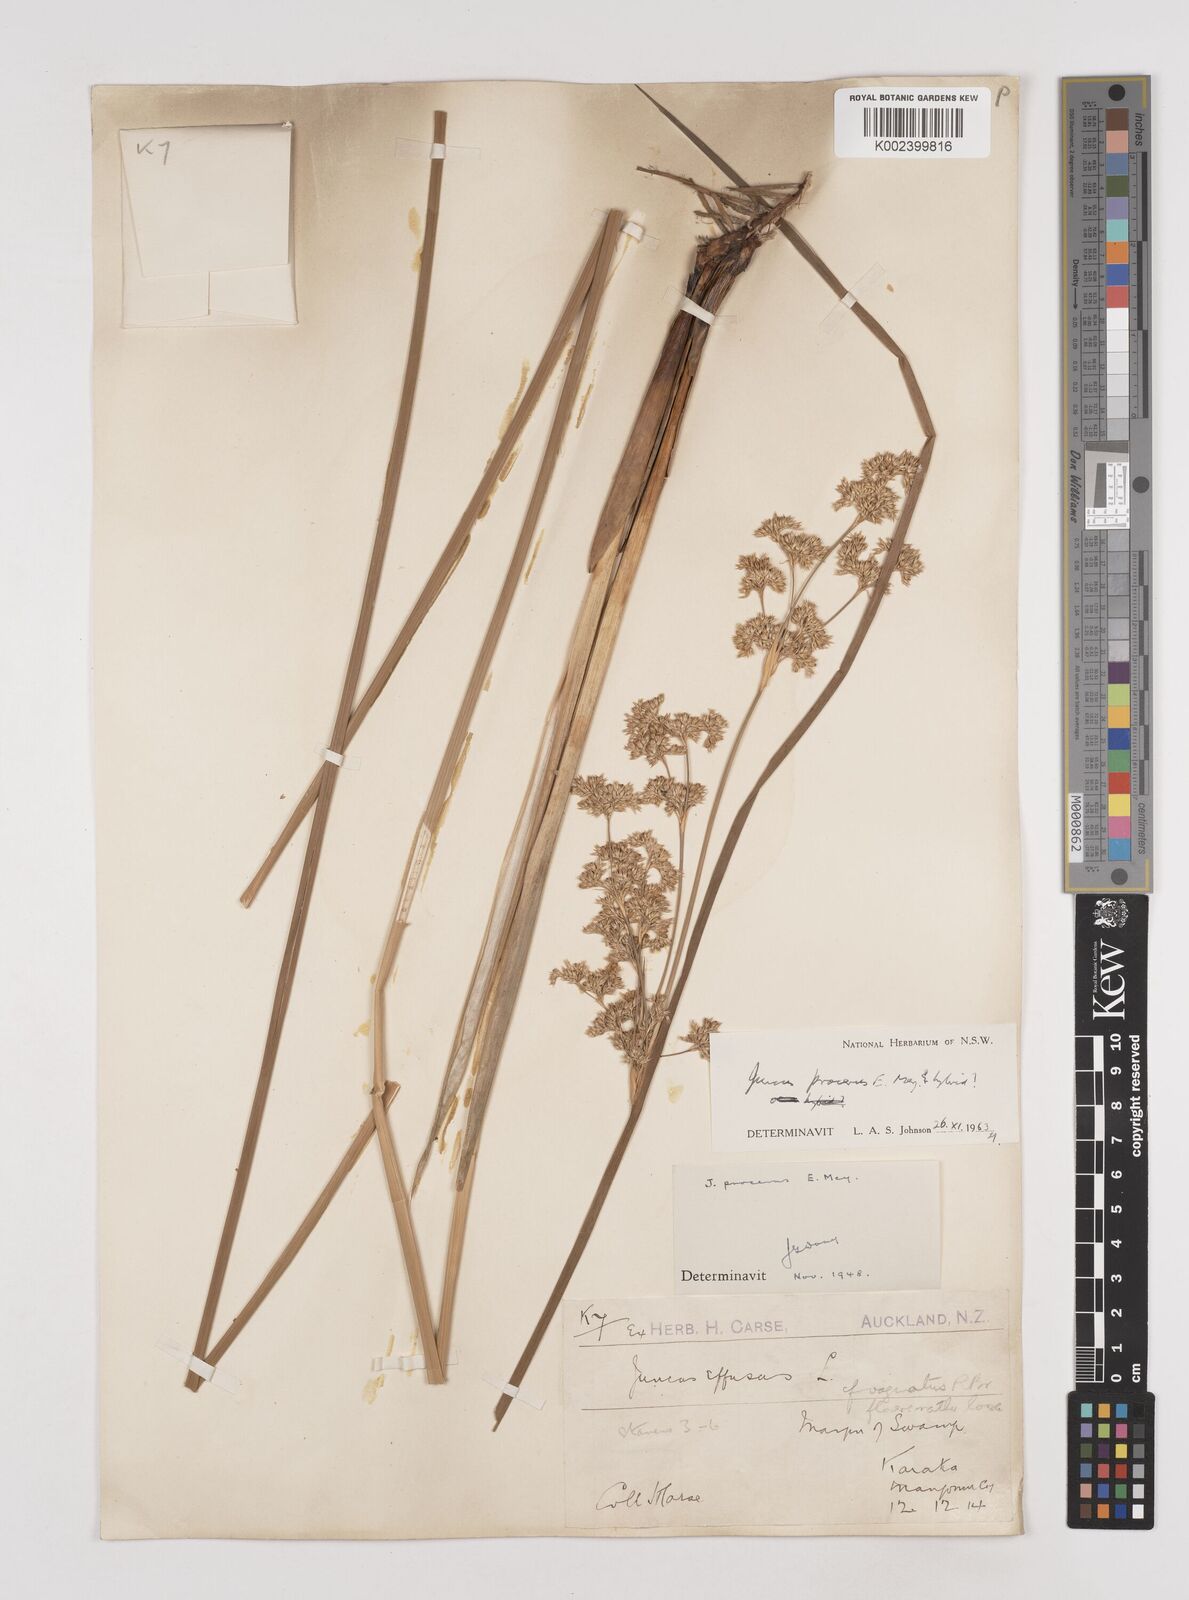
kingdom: Plantae
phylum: Tracheophyta
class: Liliopsida
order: Poales
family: Juncaceae
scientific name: Juncaceae
